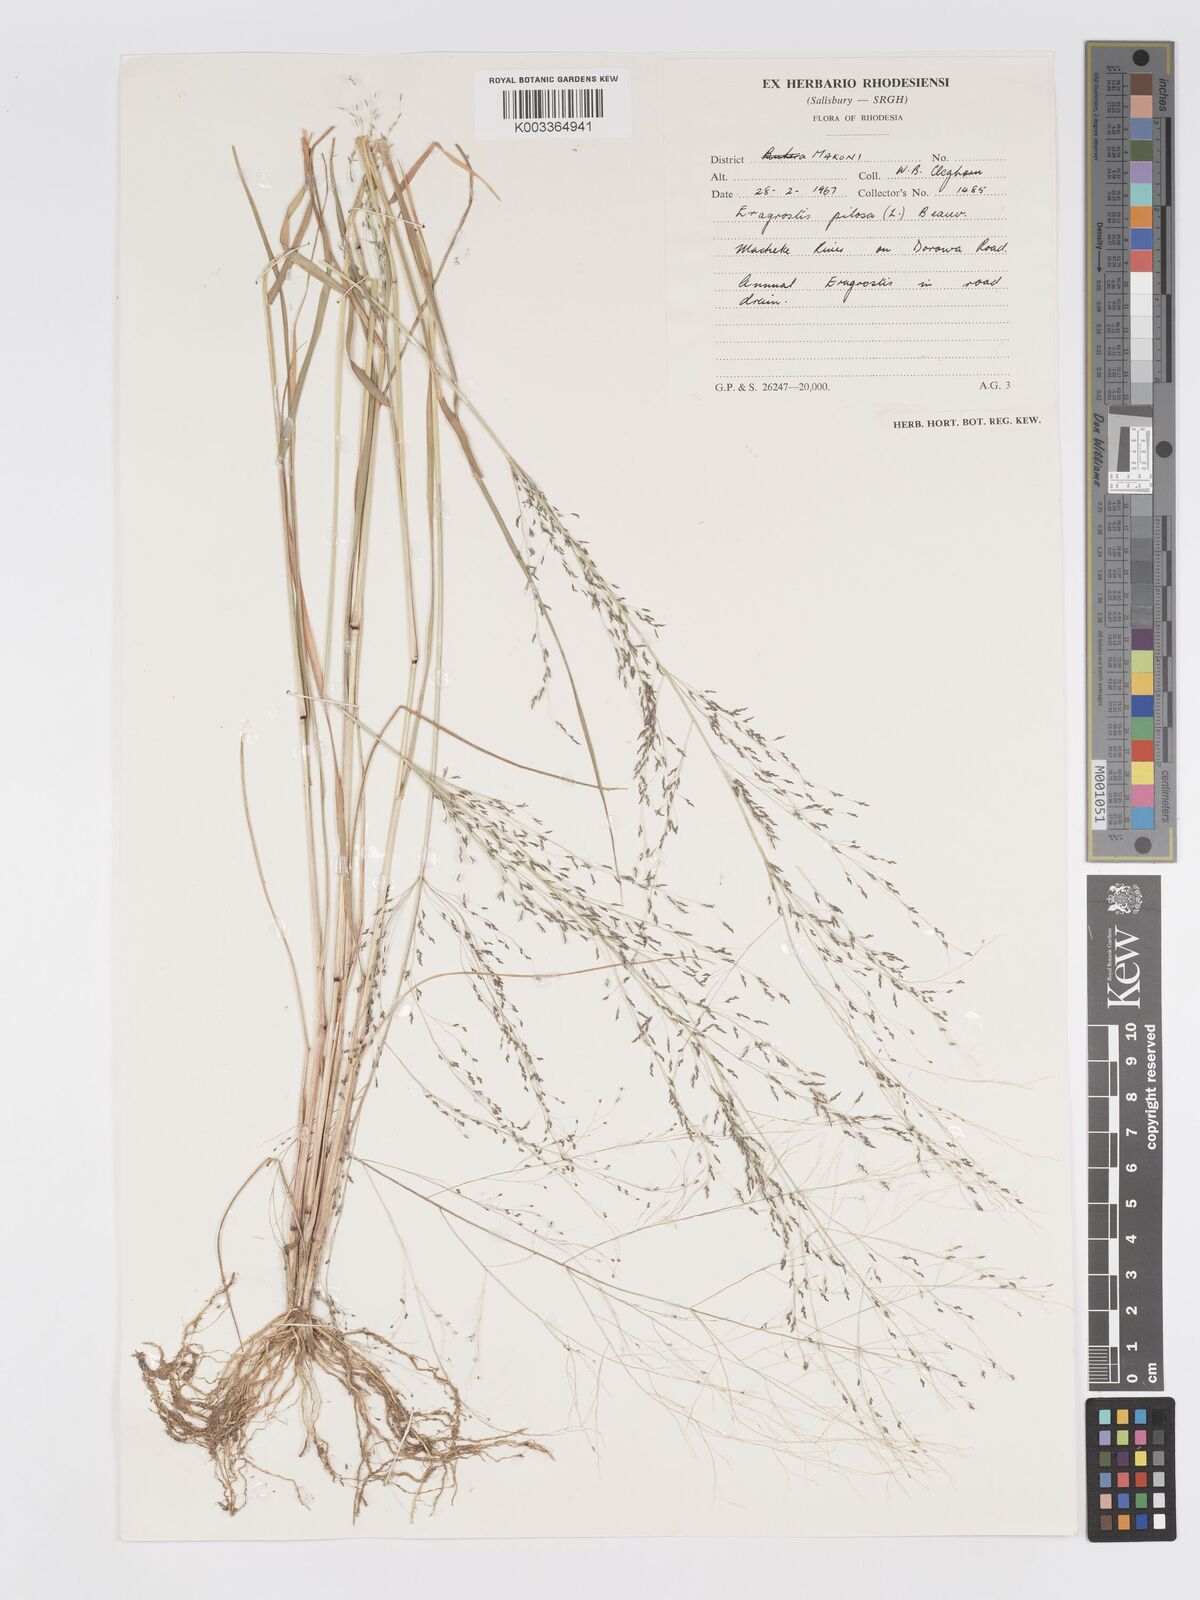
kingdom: Plantae
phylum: Tracheophyta
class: Liliopsida
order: Poales
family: Poaceae
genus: Eragrostis
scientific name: Eragrostis pilosa
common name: Indian lovegrass
